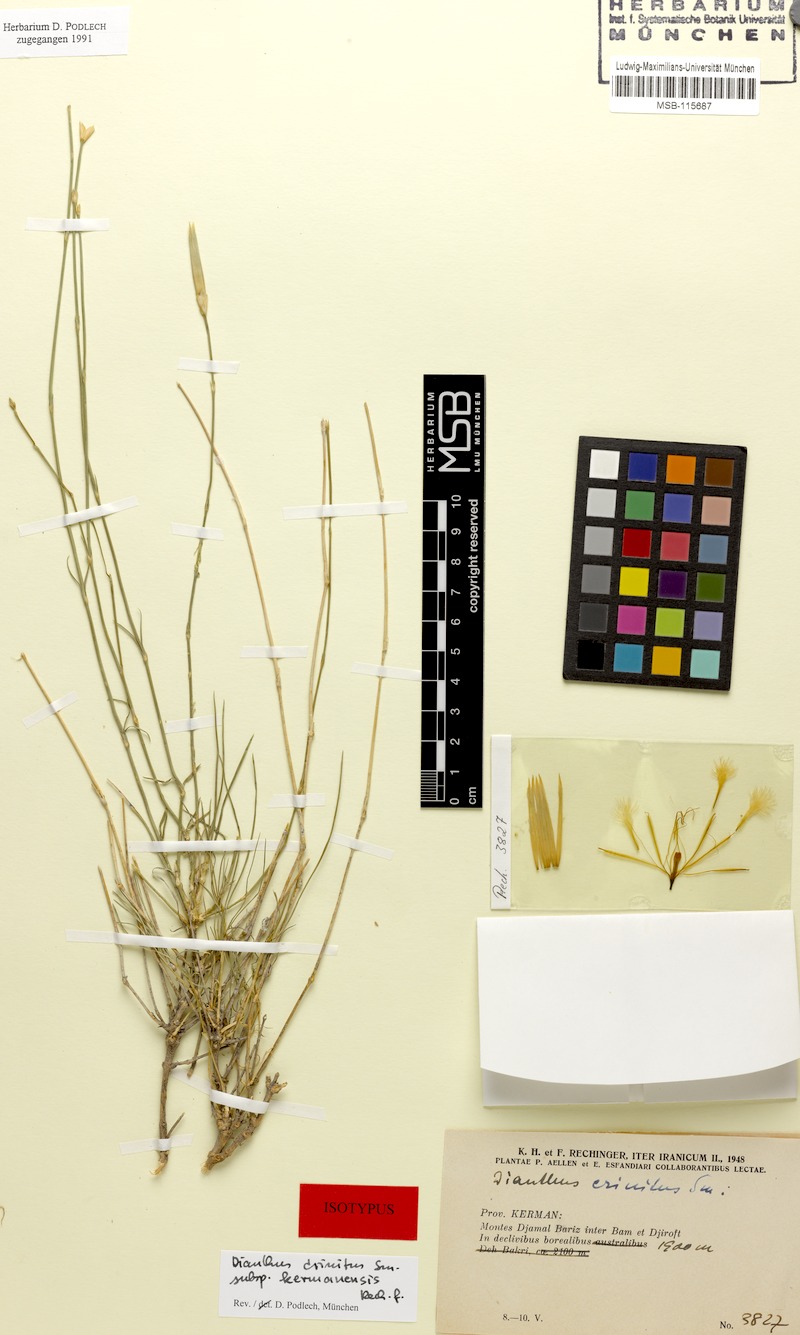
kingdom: Plantae
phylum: Tracheophyta
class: Magnoliopsida
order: Caryophyllales
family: Caryophyllaceae
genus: Dianthus
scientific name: Dianthus crinitus
